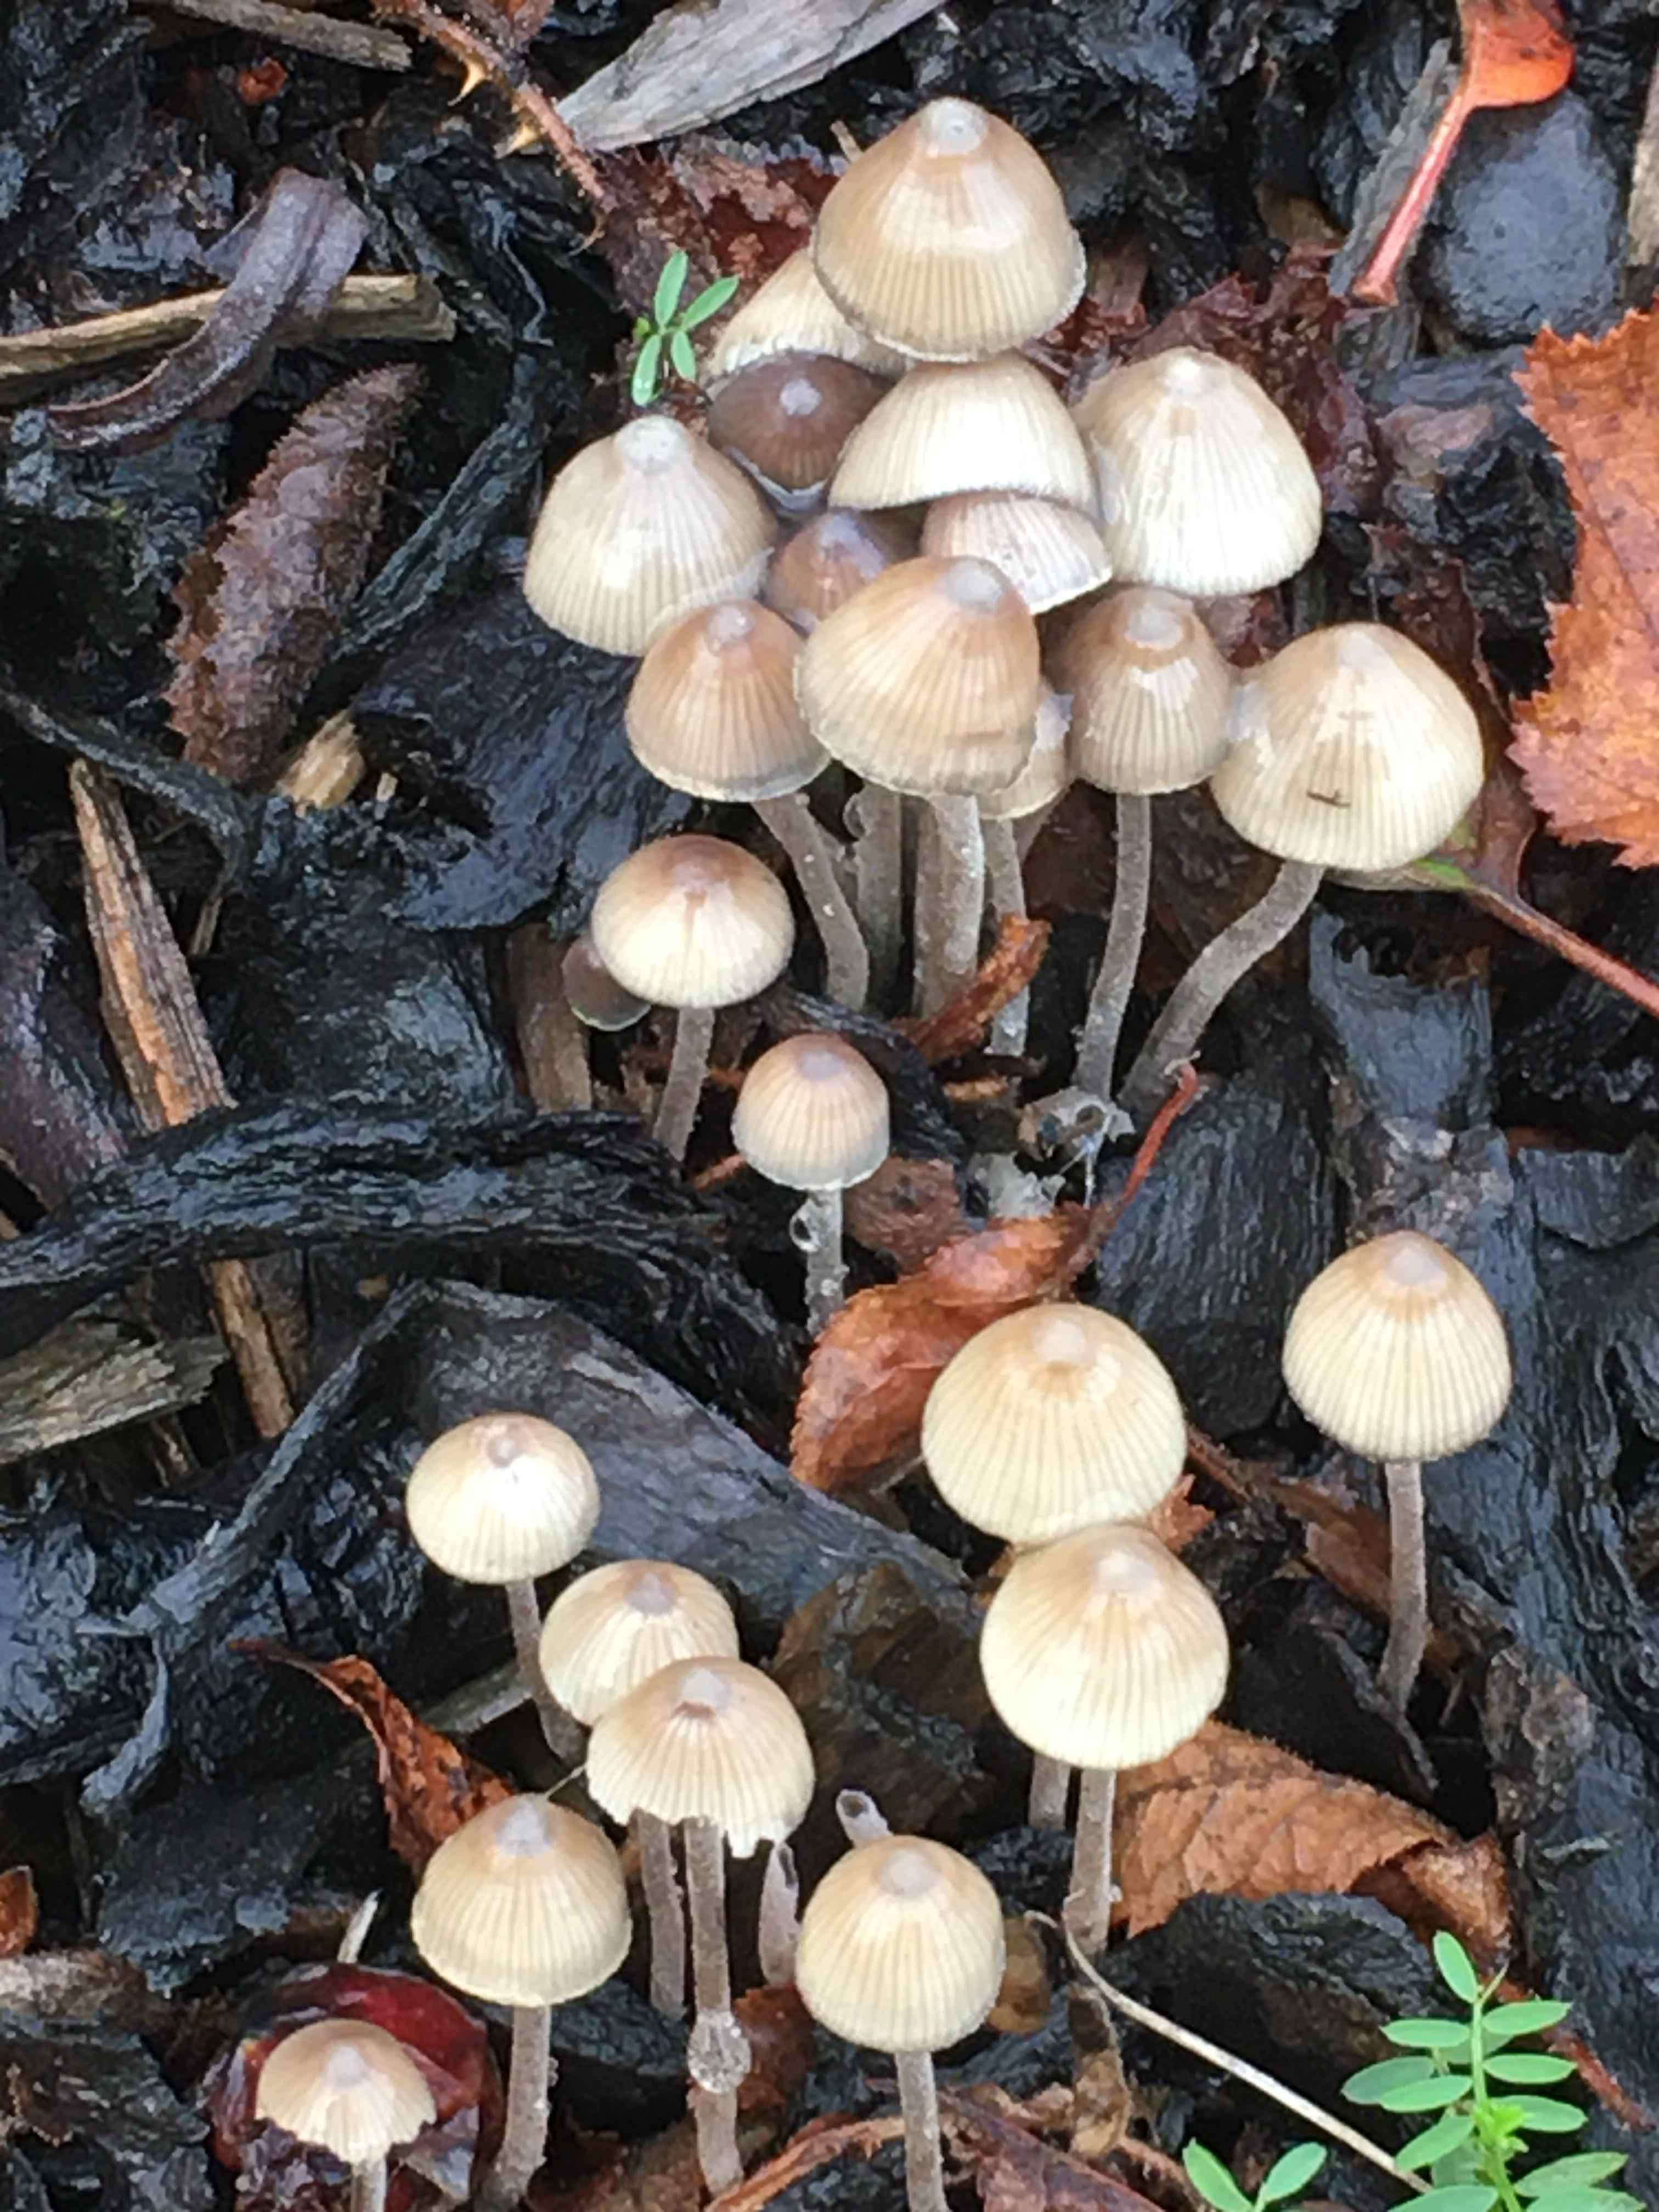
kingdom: Fungi
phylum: Basidiomycota
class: Agaricomycetes
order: Agaricales
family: Mycenaceae
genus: Mycena
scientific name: Mycena amicta
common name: iris-huesvamp
